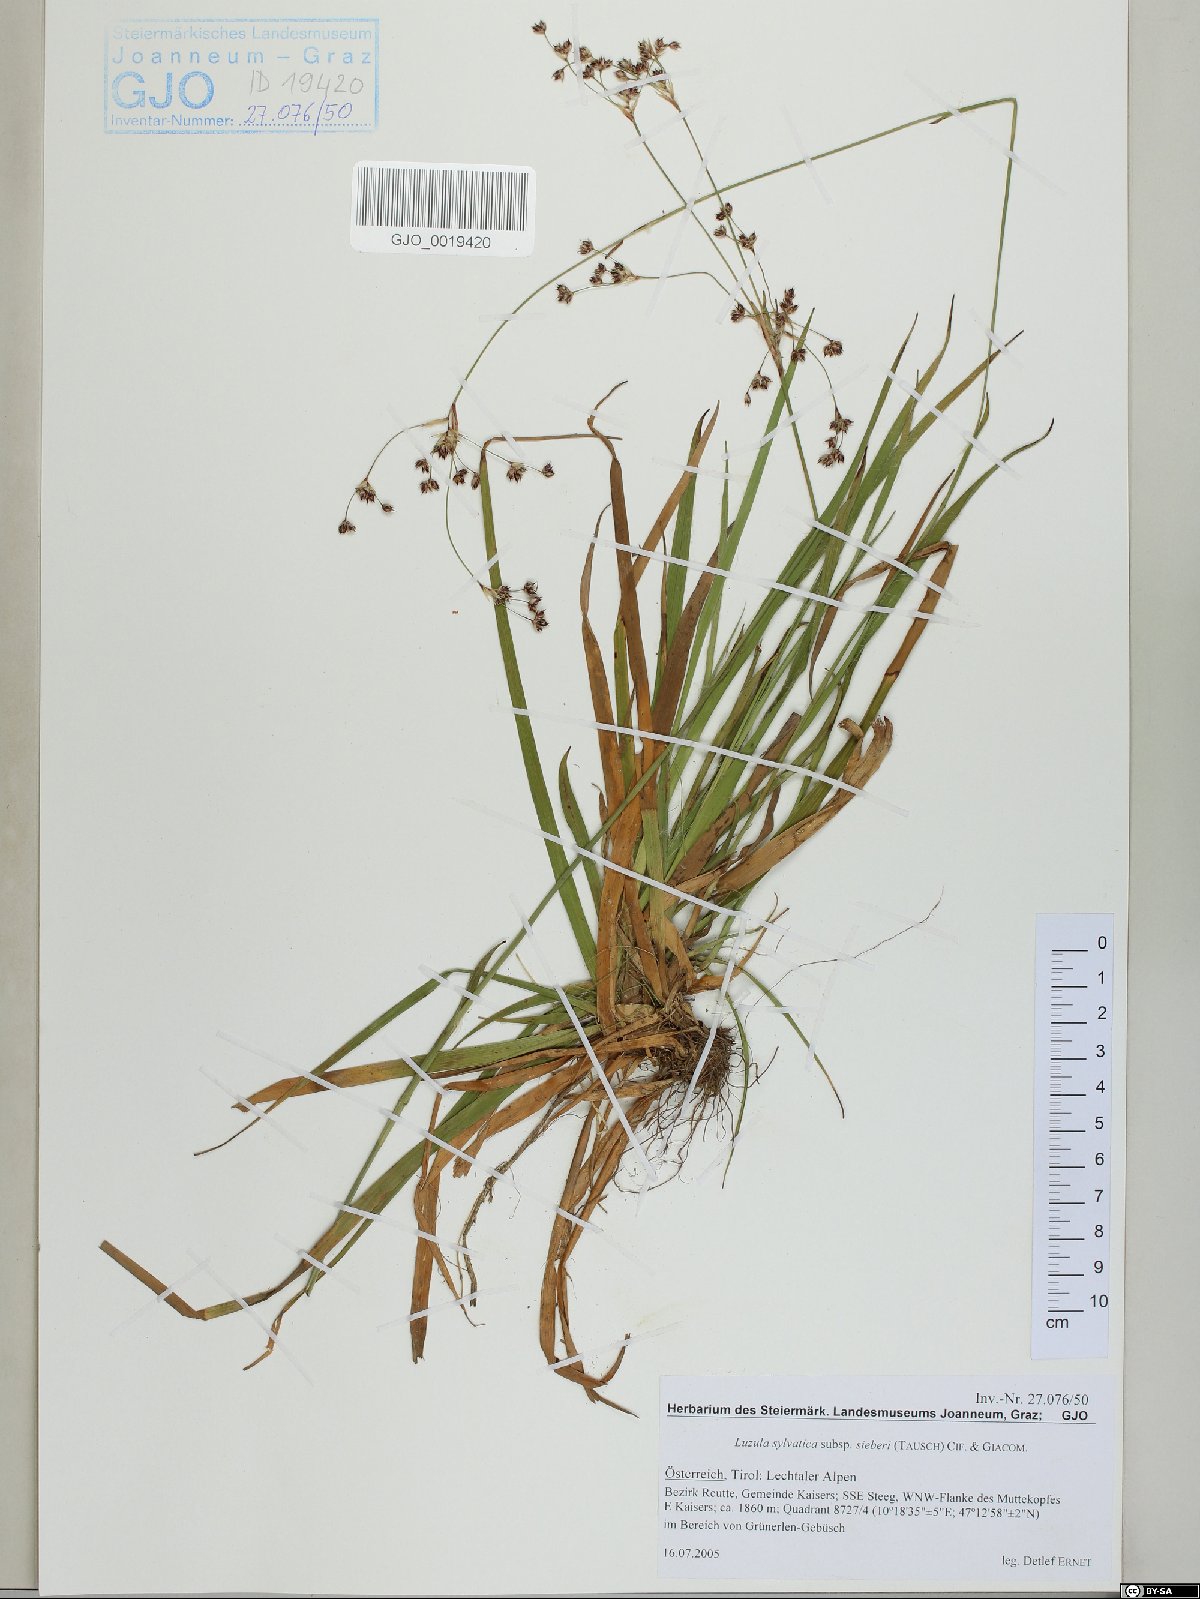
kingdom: Plantae
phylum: Tracheophyta
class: Liliopsida
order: Poales
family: Juncaceae
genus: Luzula
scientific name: Luzula sylvatica
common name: Great wood-rush
